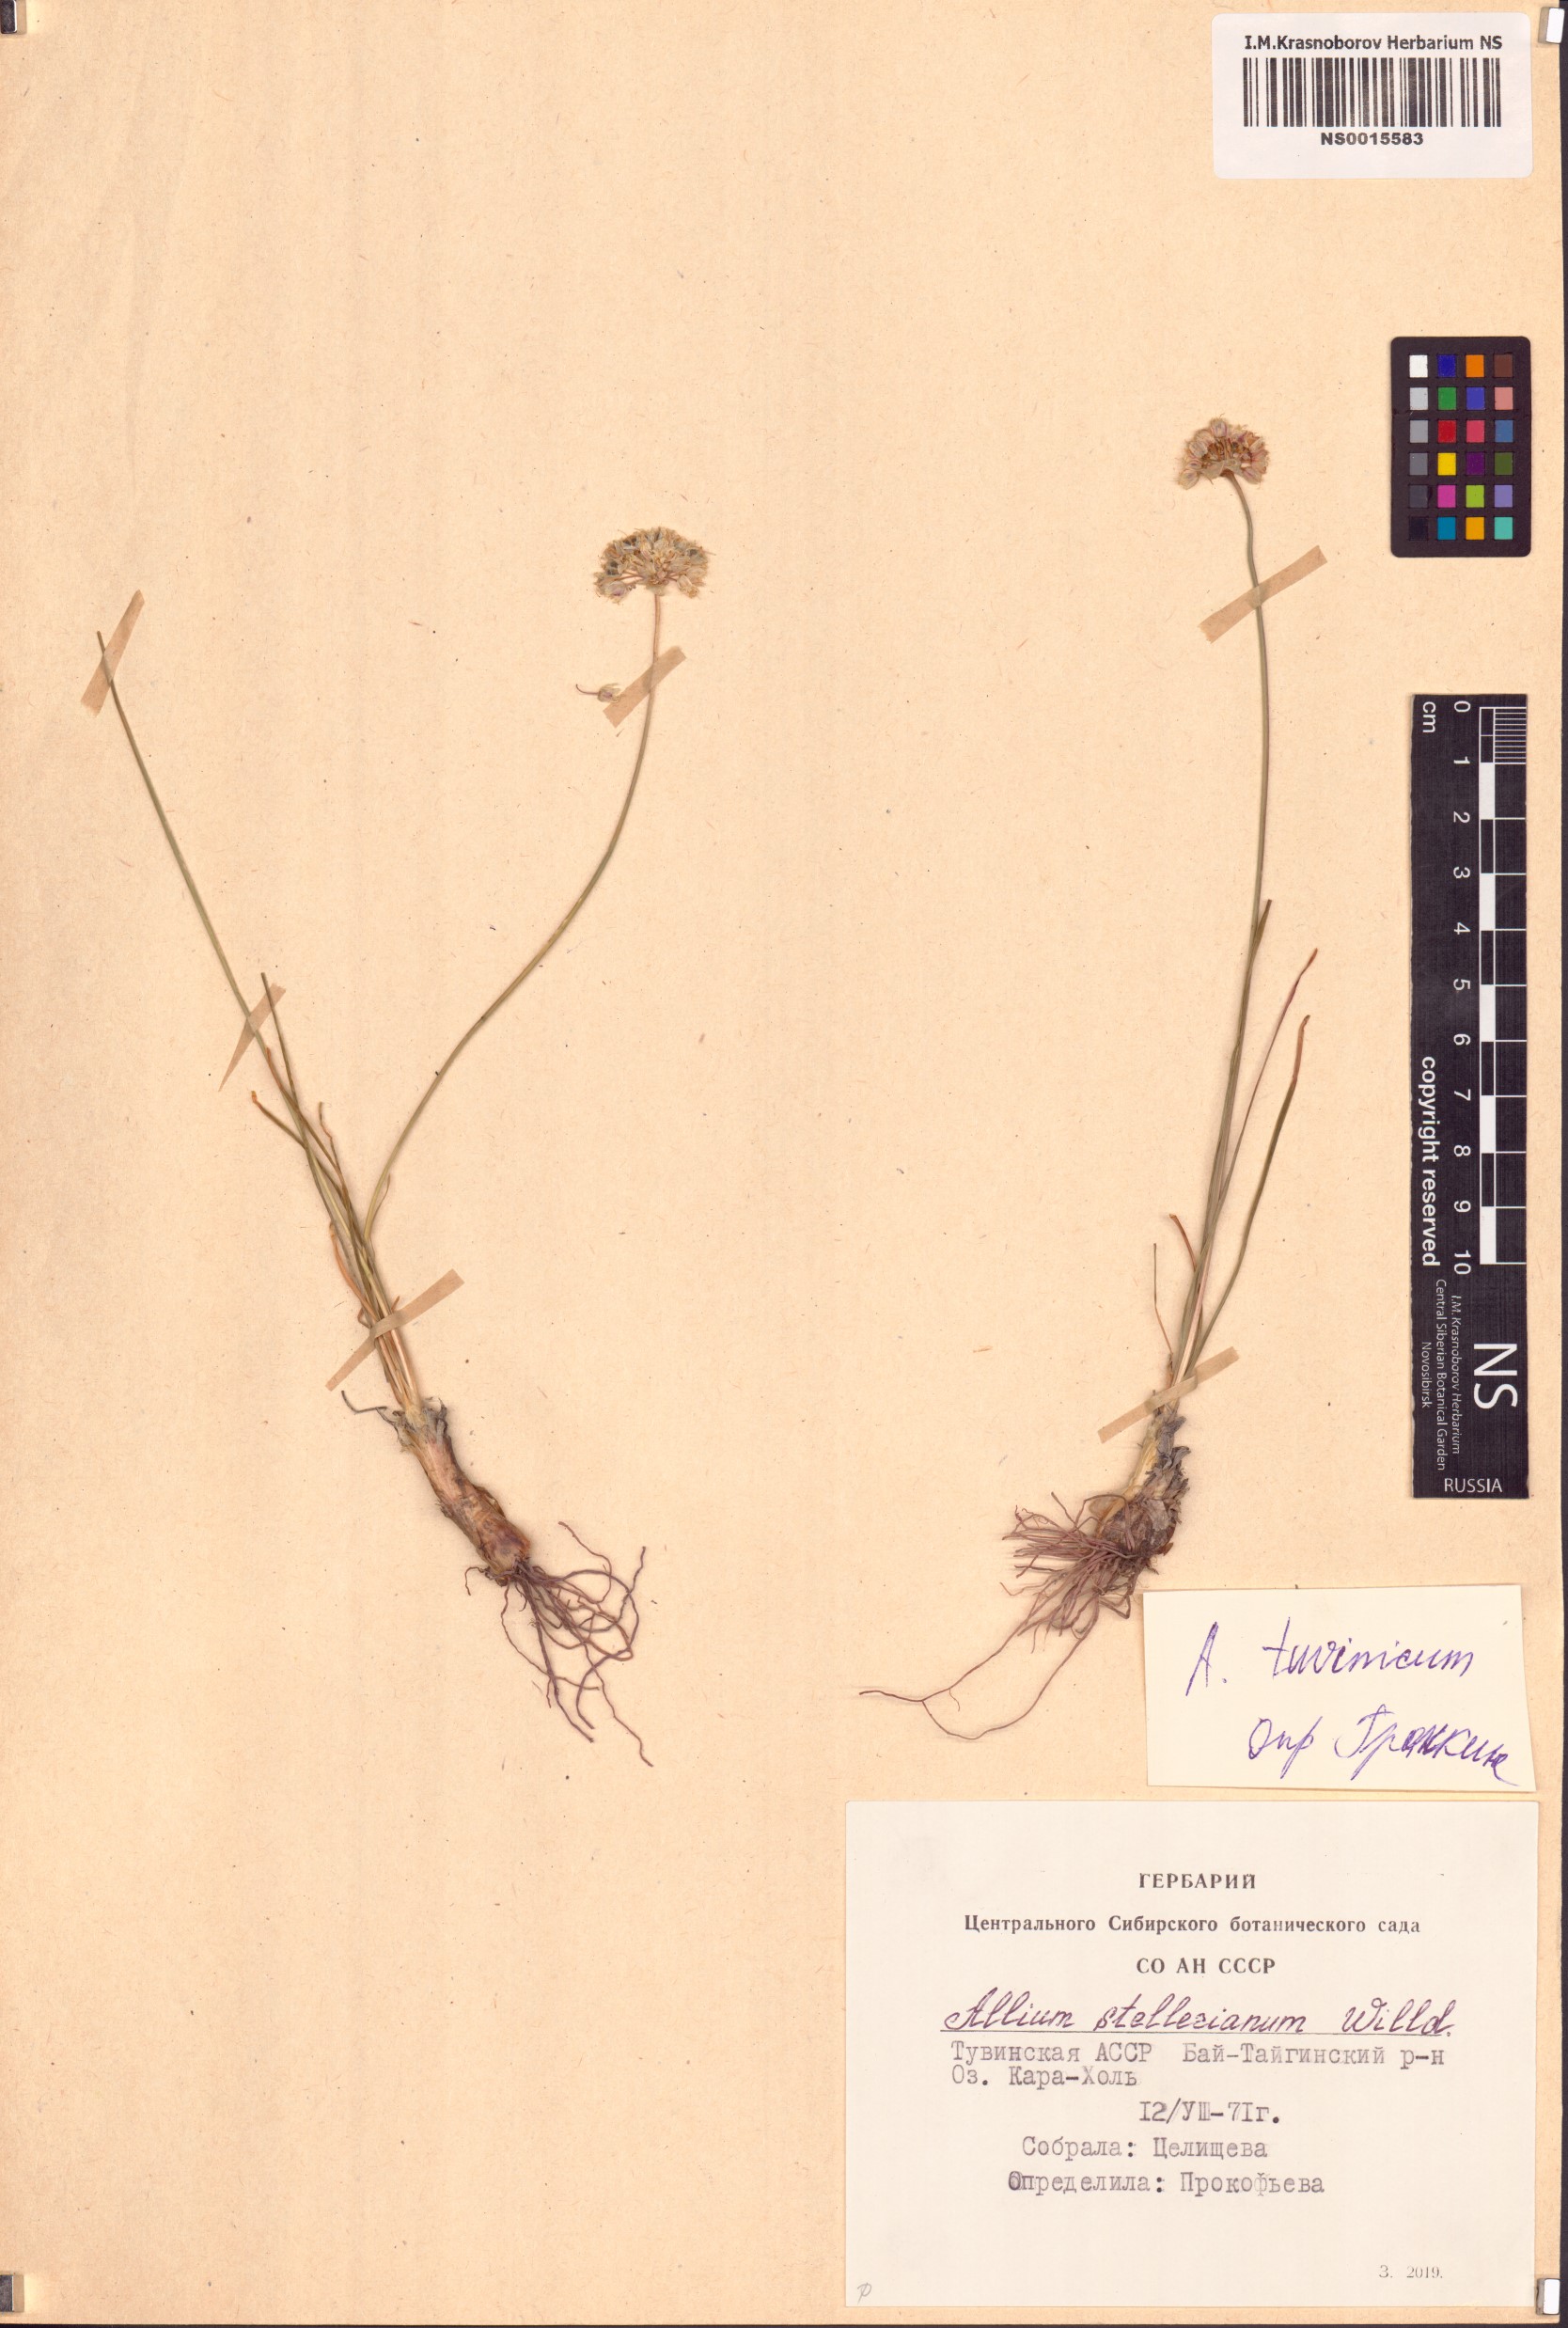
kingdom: Plantae
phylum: Tracheophyta
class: Liliopsida
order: Asparagales
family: Amaryllidaceae
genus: Allium
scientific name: Allium tuvinicum
